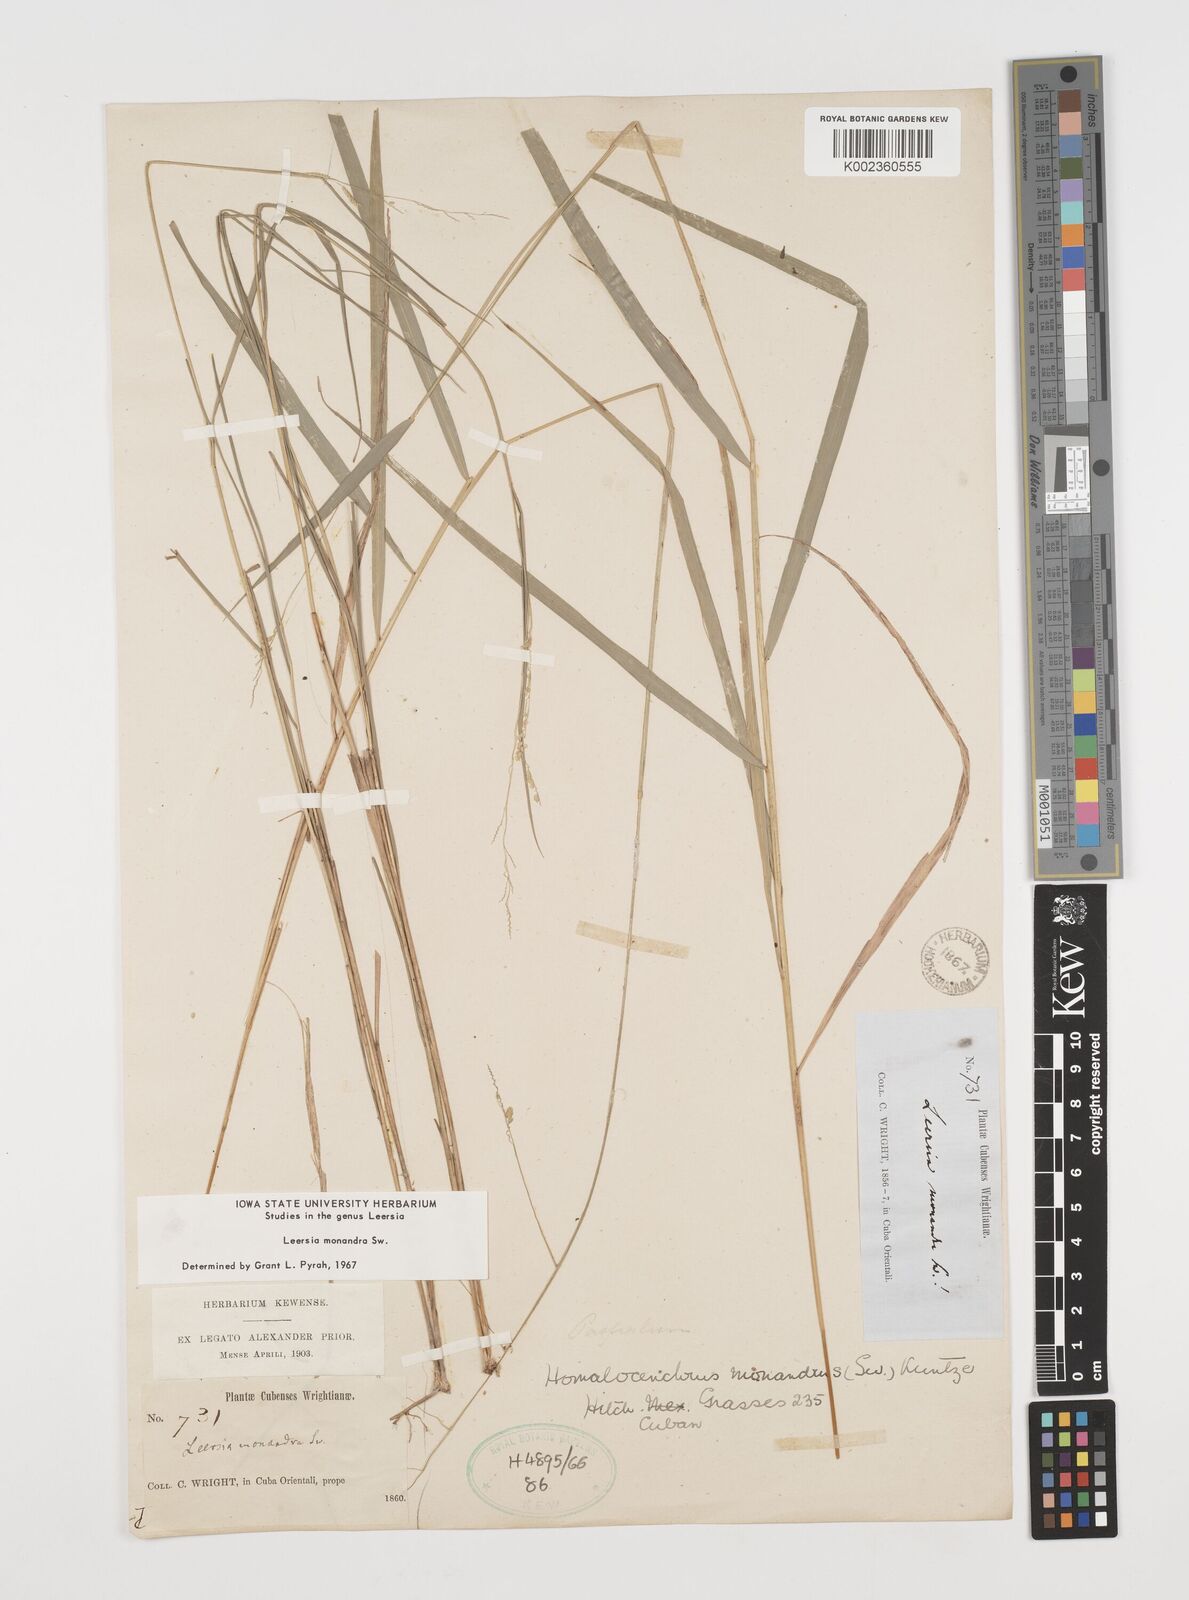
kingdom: Plantae
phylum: Tracheophyta
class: Liliopsida
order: Poales
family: Poaceae
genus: Leersia
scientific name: Leersia monandra
